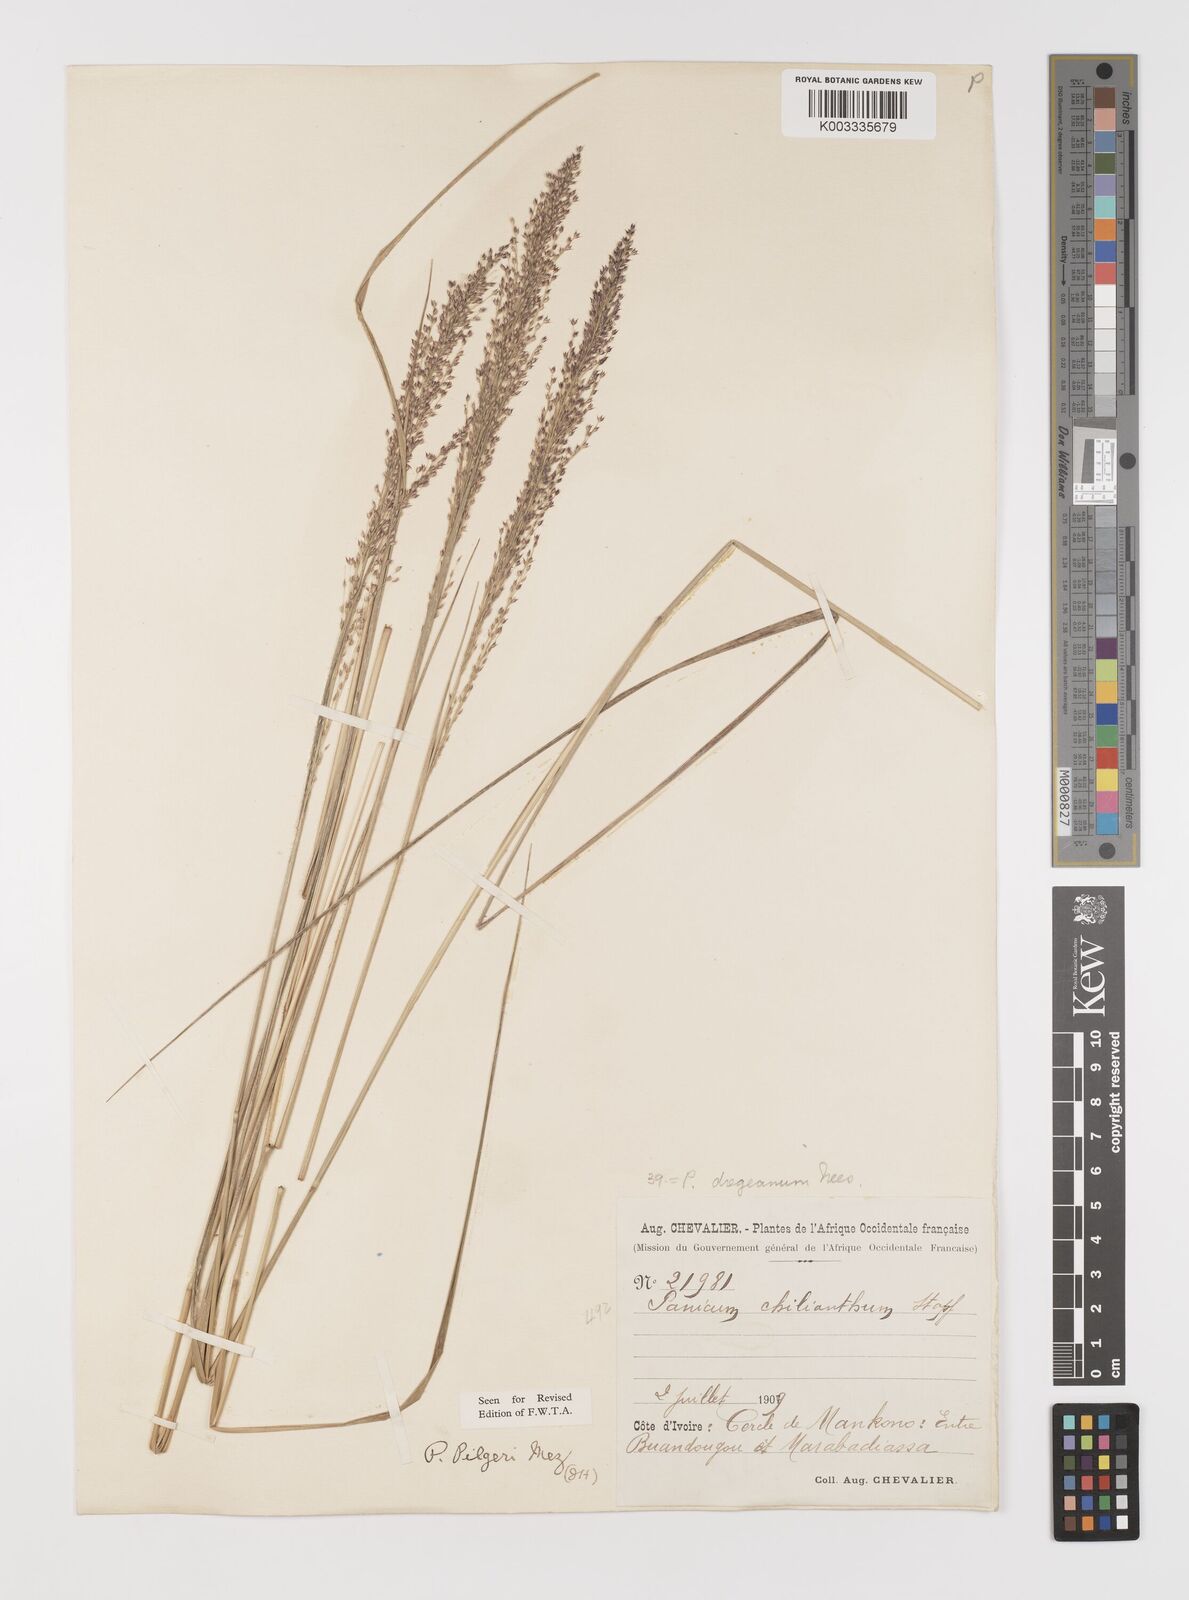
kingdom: Plantae
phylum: Tracheophyta
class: Liliopsida
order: Poales
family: Poaceae
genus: Panicum
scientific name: Panicum
